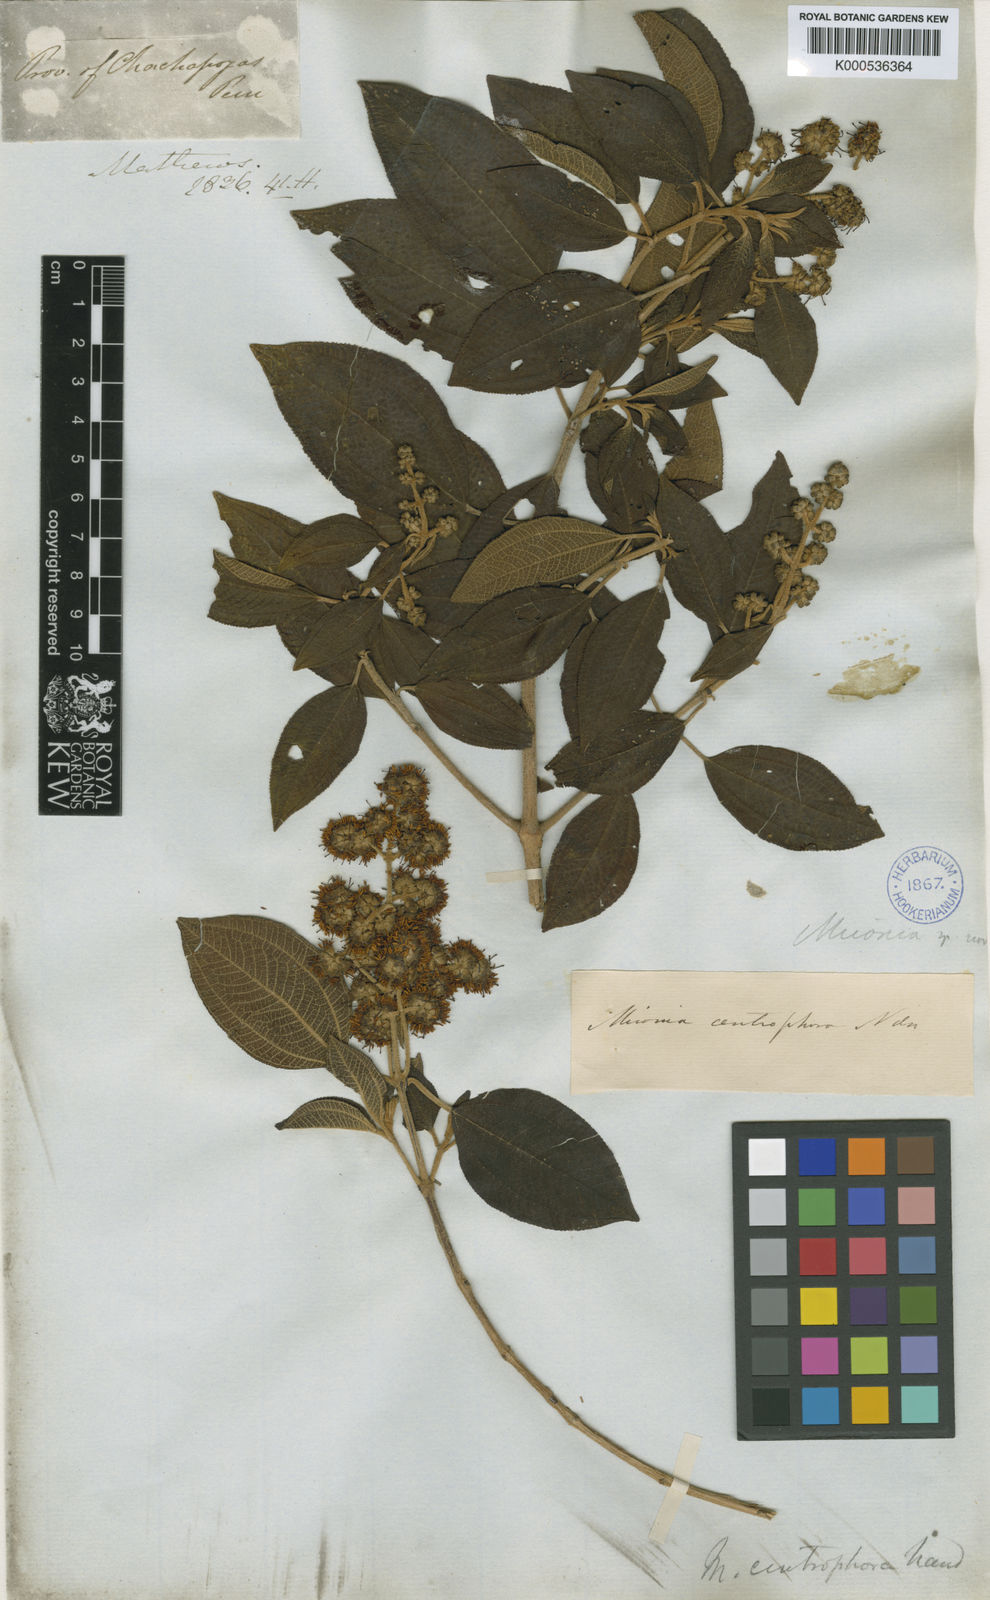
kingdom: Plantae
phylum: Tracheophyta
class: Magnoliopsida
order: Myrtales
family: Melastomataceae
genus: Miconia
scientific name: Miconia centrophora
